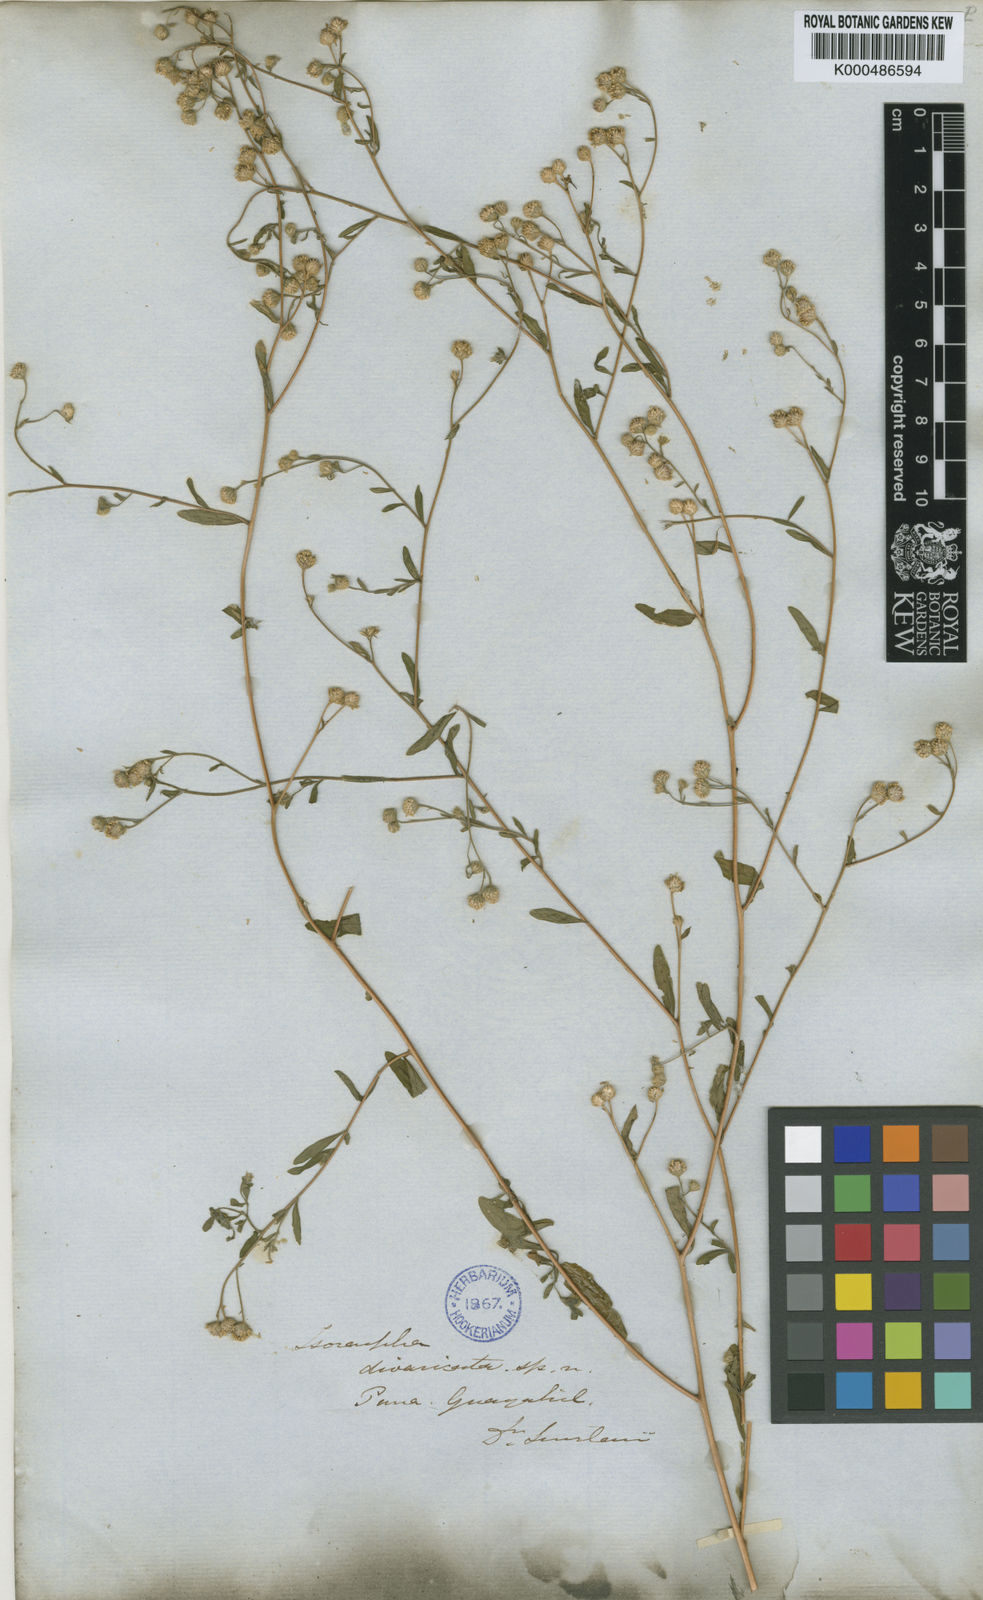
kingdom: Plantae
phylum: Tracheophyta
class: Magnoliopsida
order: Asterales
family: Asteraceae
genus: Isocarpha
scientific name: Isocarpha microcephala
